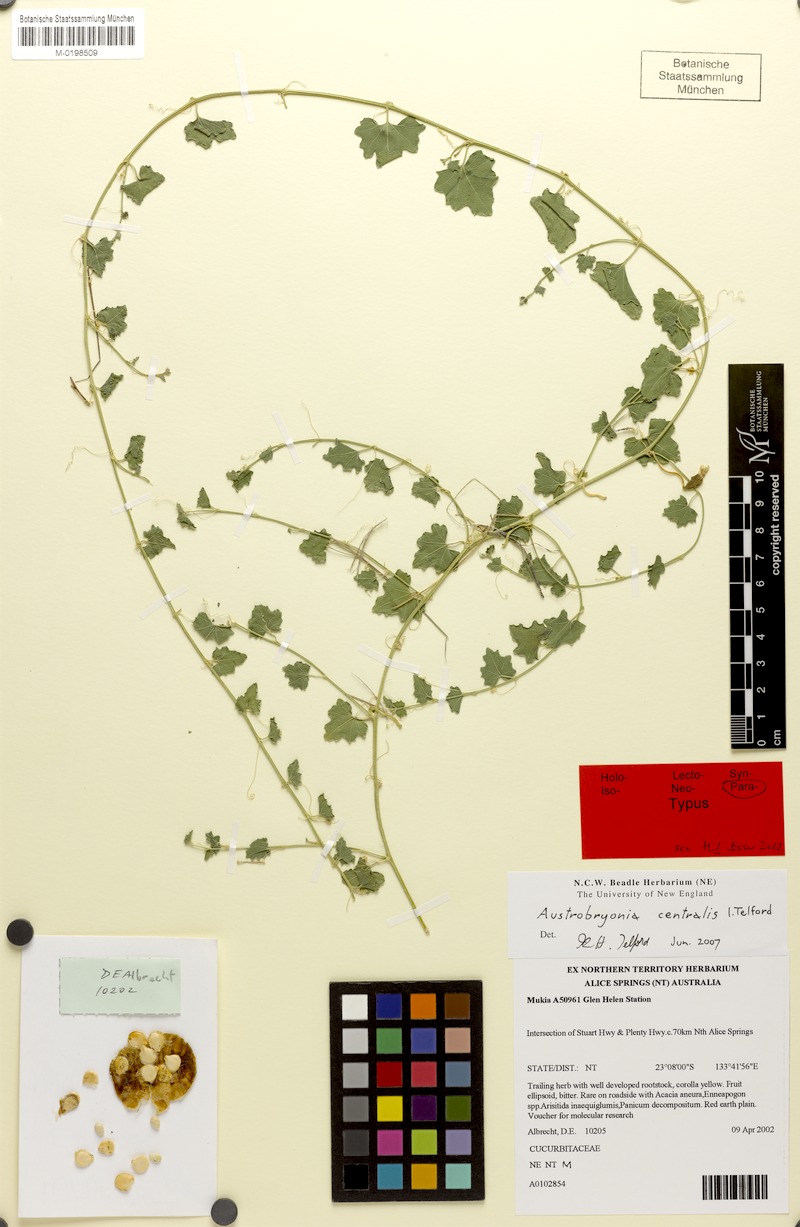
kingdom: Plantae
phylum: Tracheophyta
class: Magnoliopsida
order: Cucurbitales
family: Cucurbitaceae
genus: Austrobryonia
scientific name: Austrobryonia centralis
